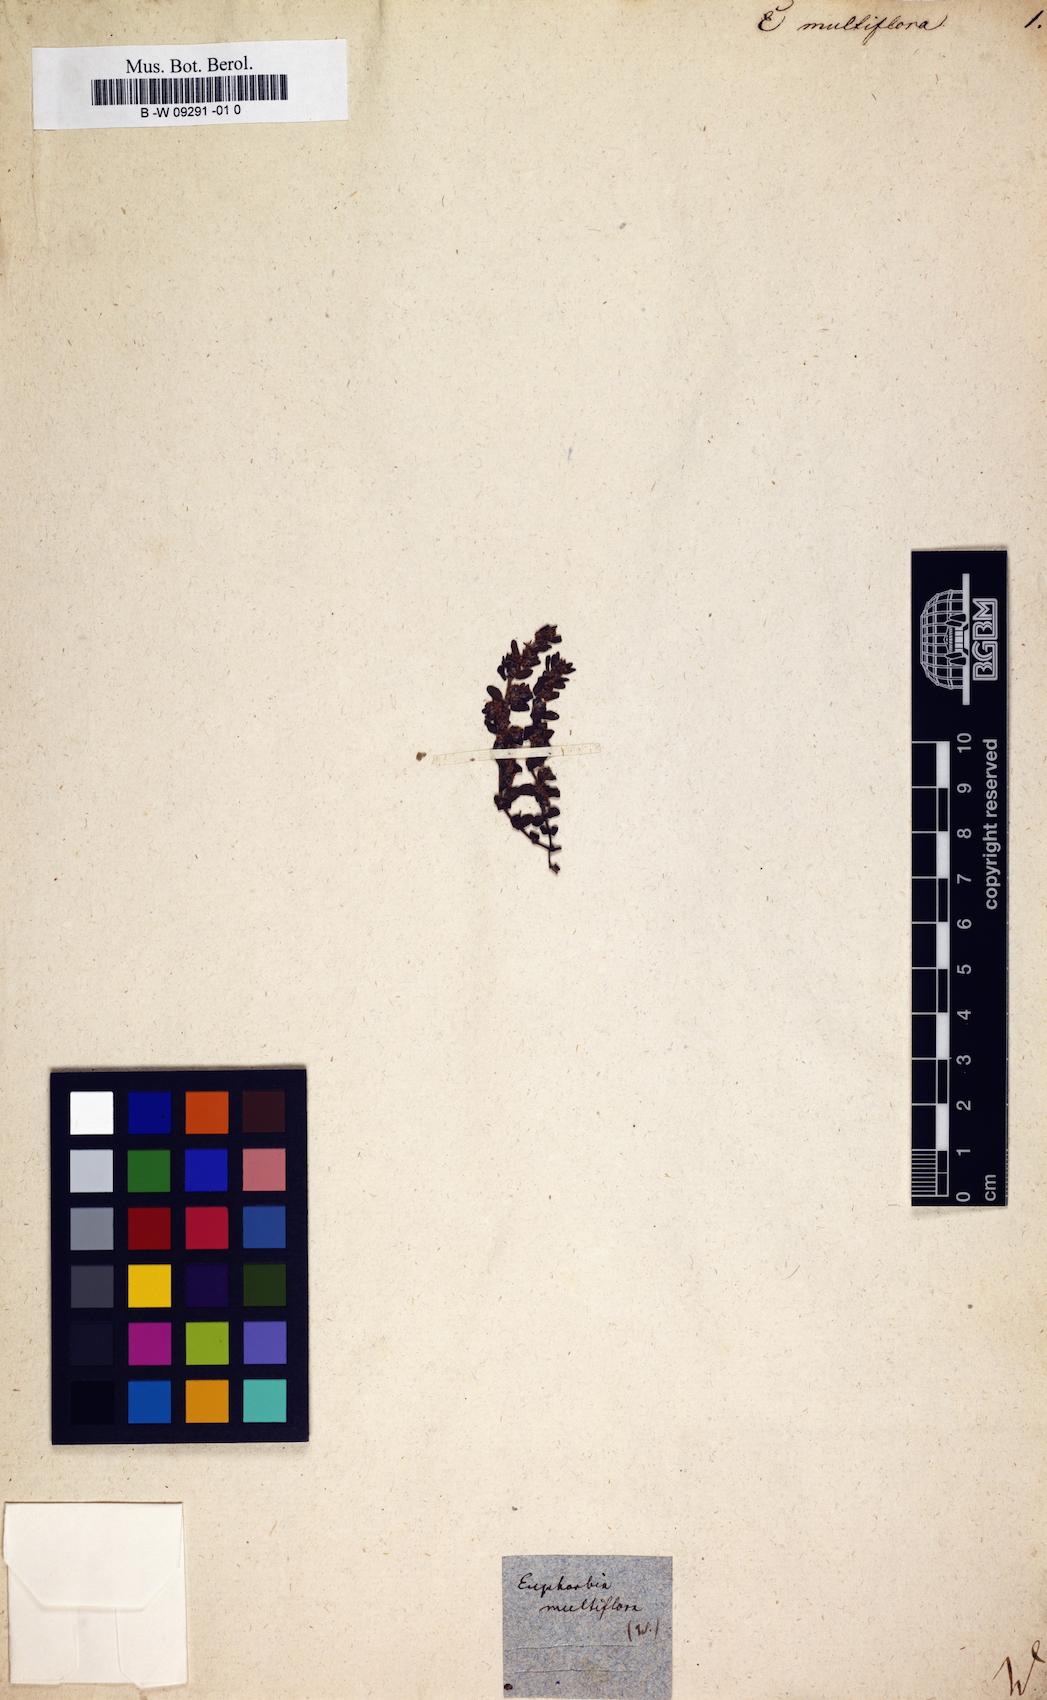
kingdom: Plantae
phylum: Tracheophyta
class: Magnoliopsida
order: Malpighiales
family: Euphorbiaceae
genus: Euphorbia
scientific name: Euphorbia dioeca
